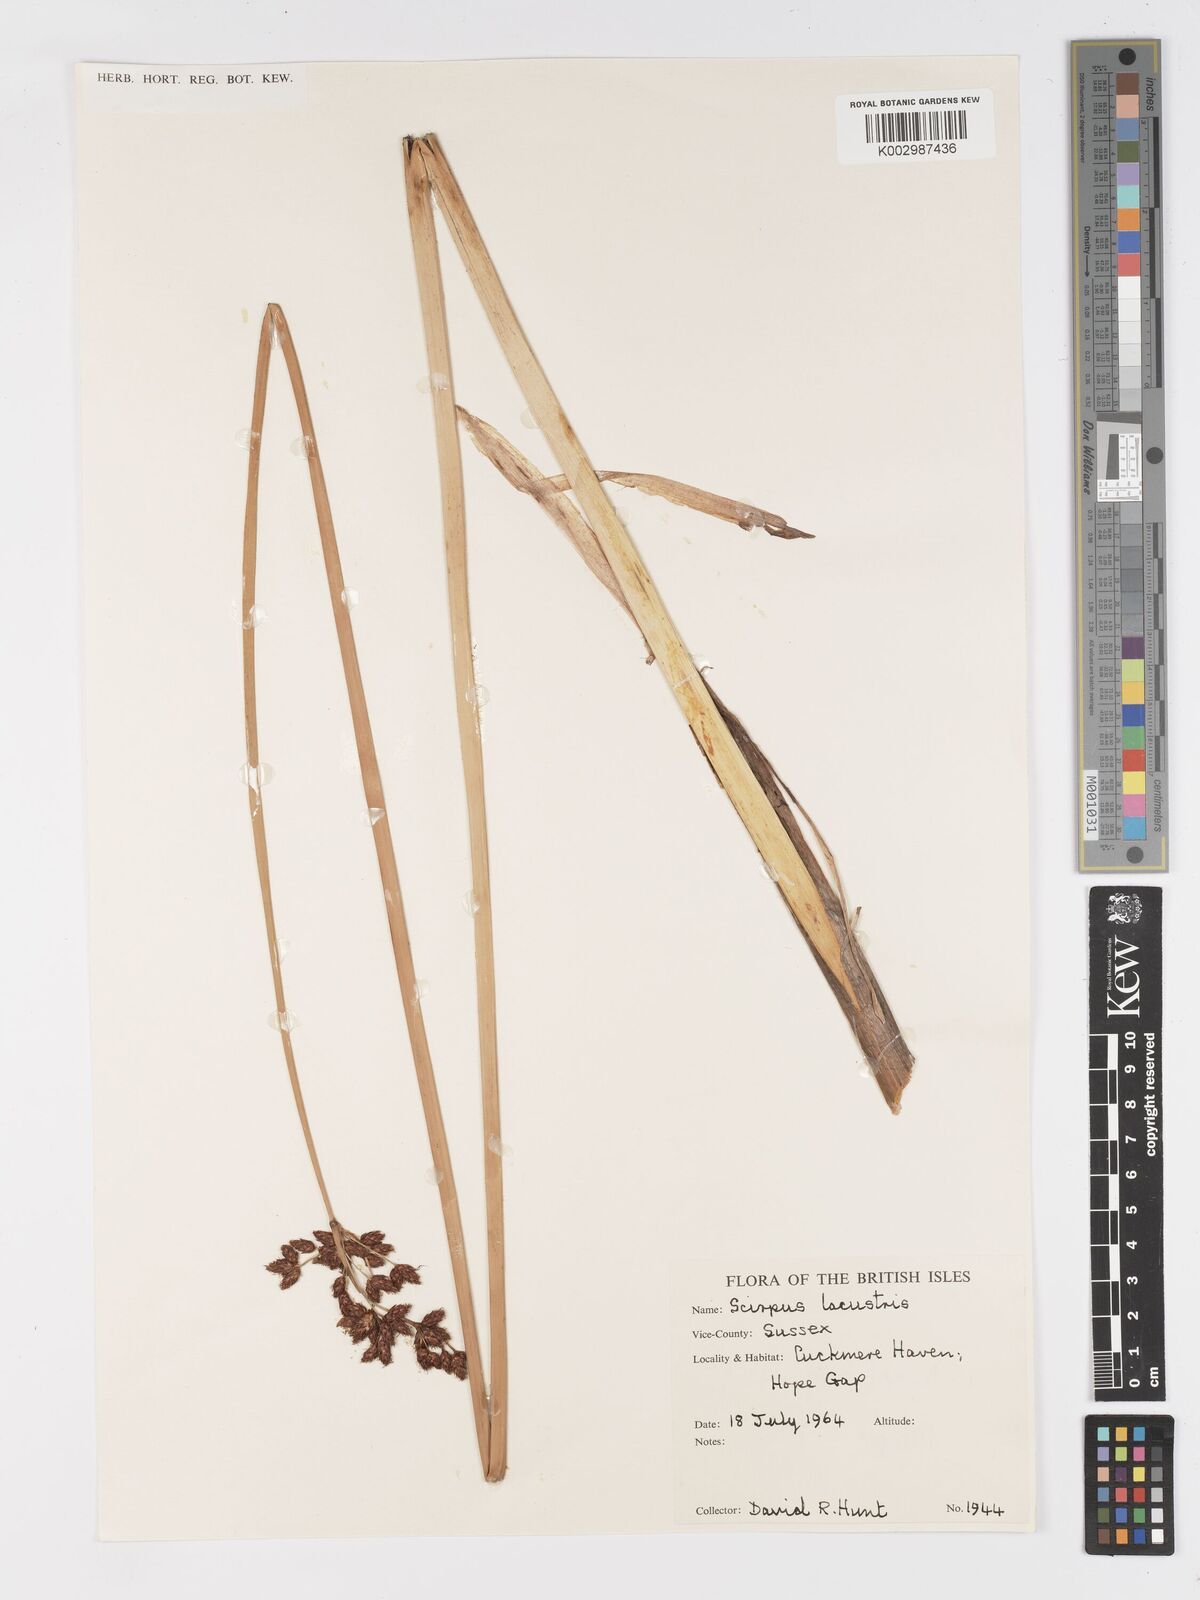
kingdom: Plantae
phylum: Tracheophyta
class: Liliopsida
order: Poales
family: Cyperaceae
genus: Schoenoplectus
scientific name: Schoenoplectus lacustris
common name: Common club-rush
